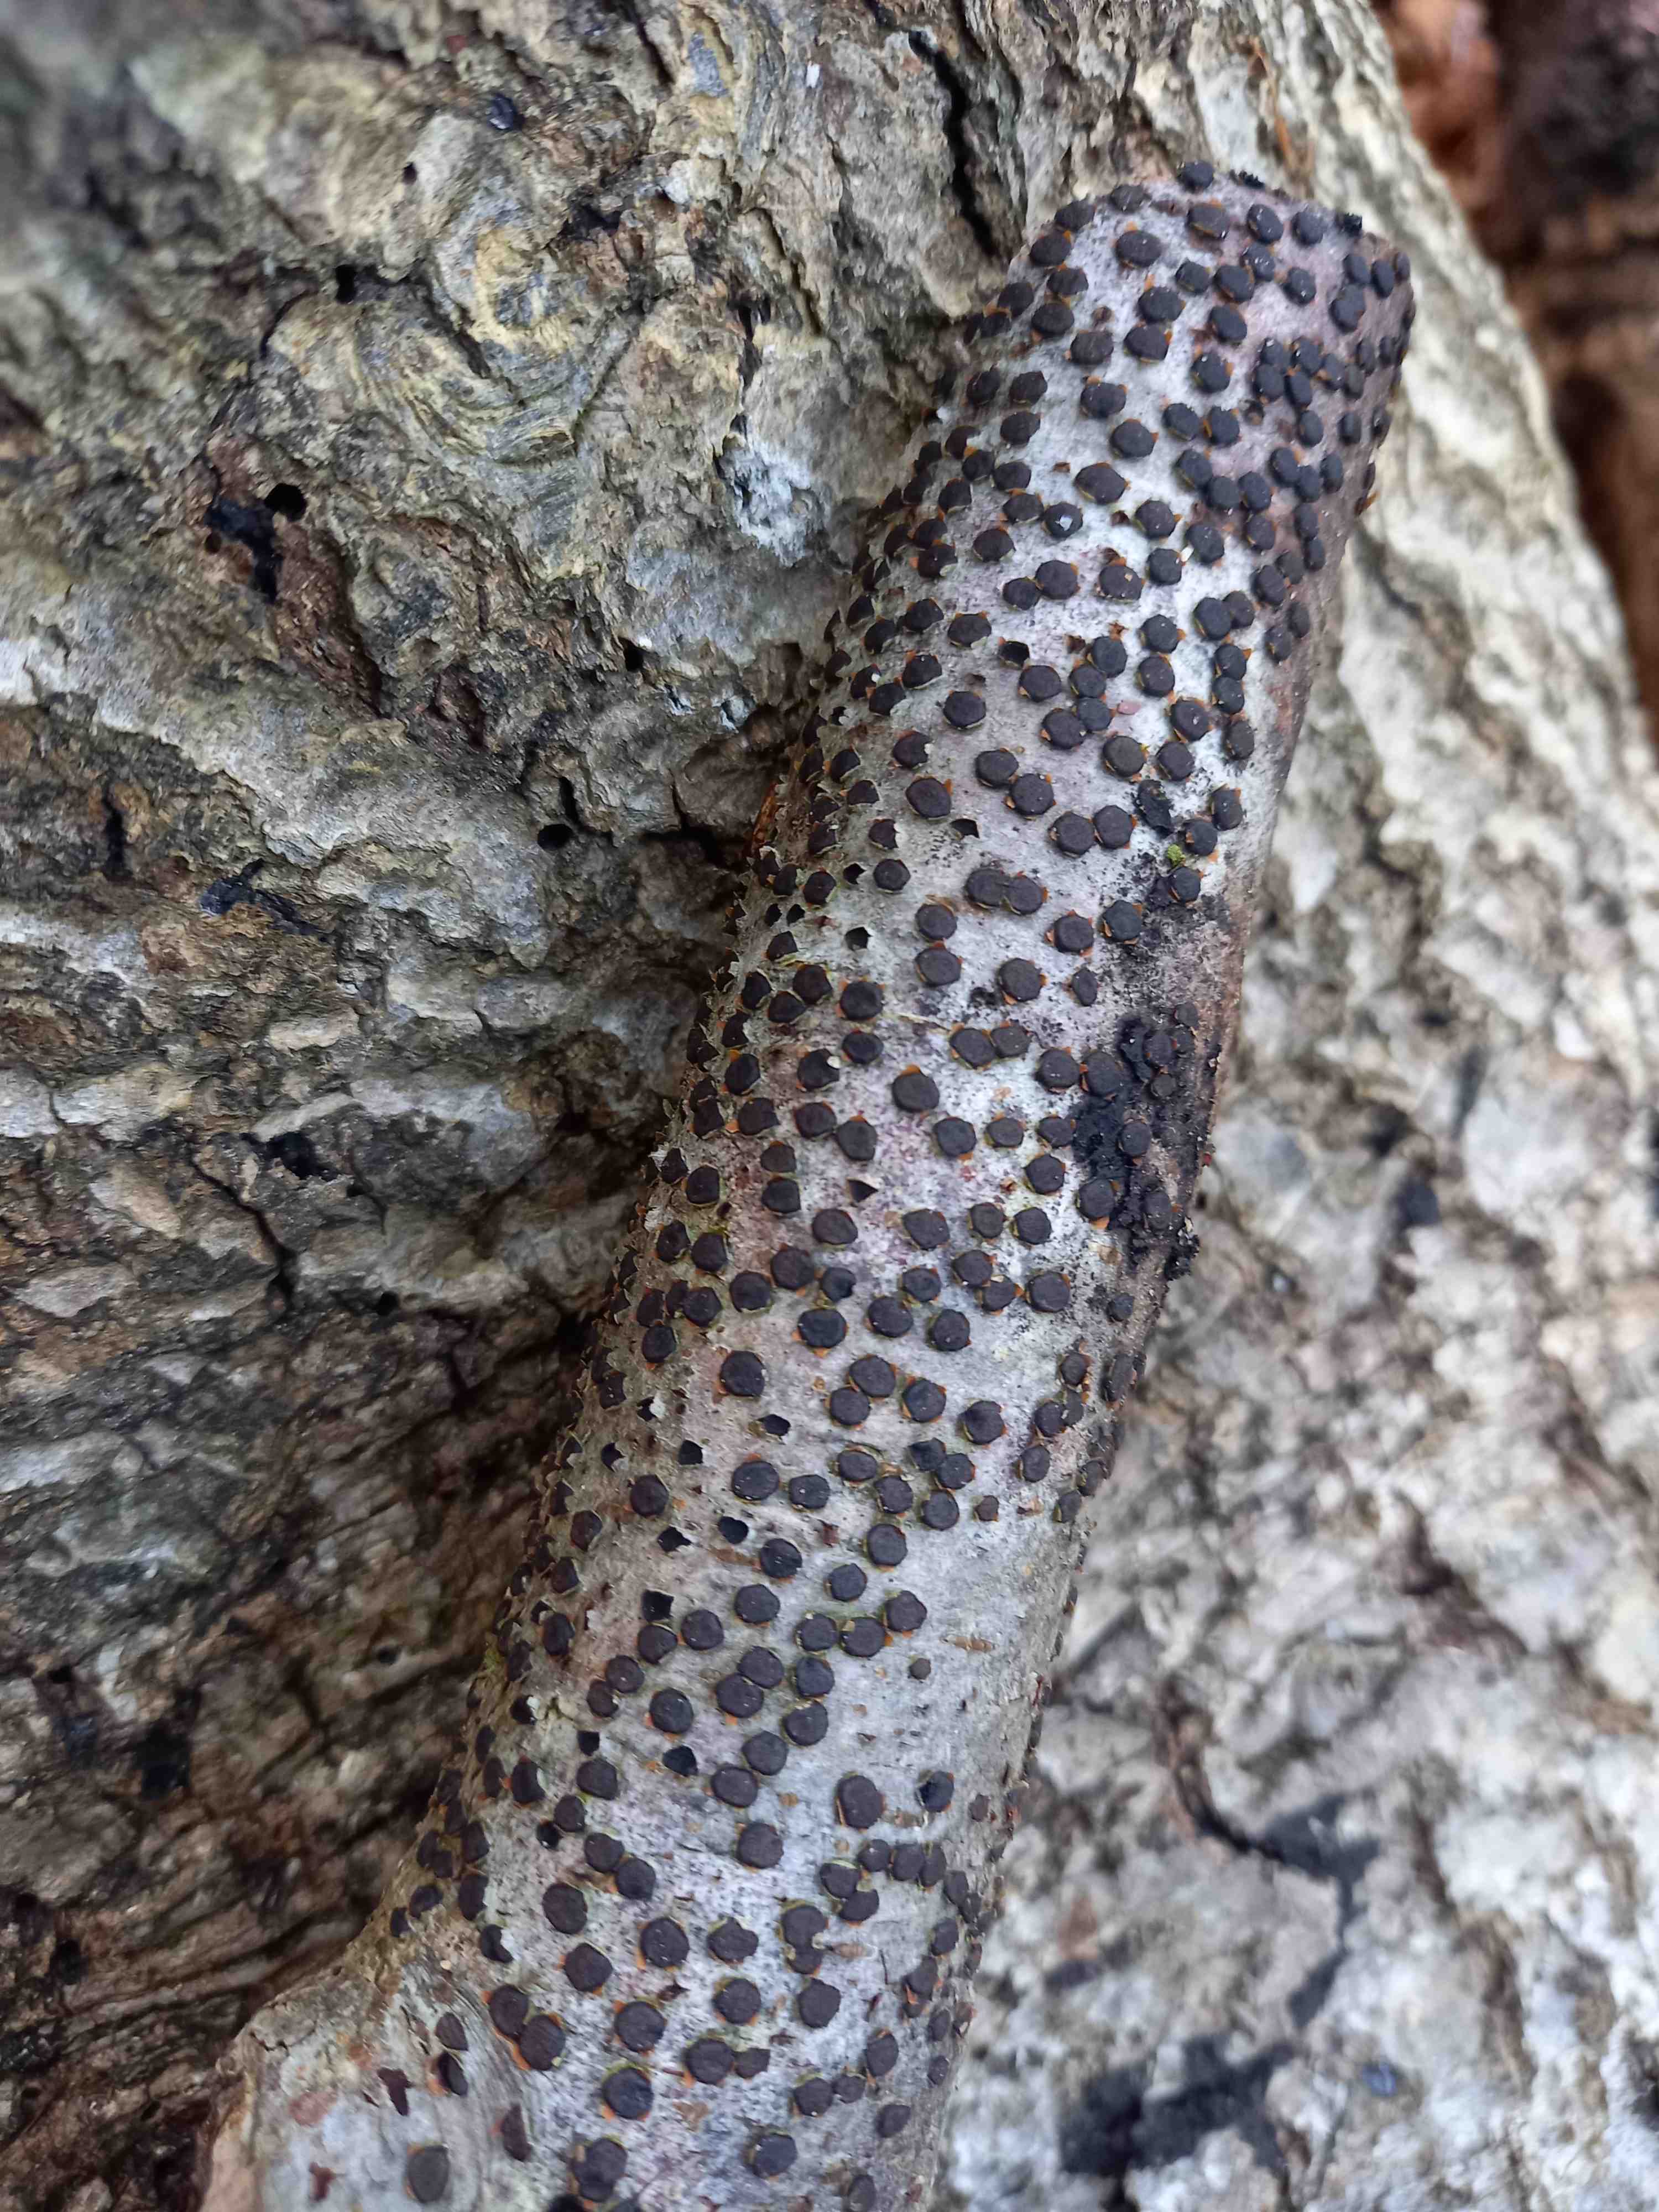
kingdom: Fungi
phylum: Ascomycota
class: Sordariomycetes
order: Xylariales
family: Diatrypaceae
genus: Diatrype
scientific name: Diatrype disciformis
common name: kant-kulskorpe
